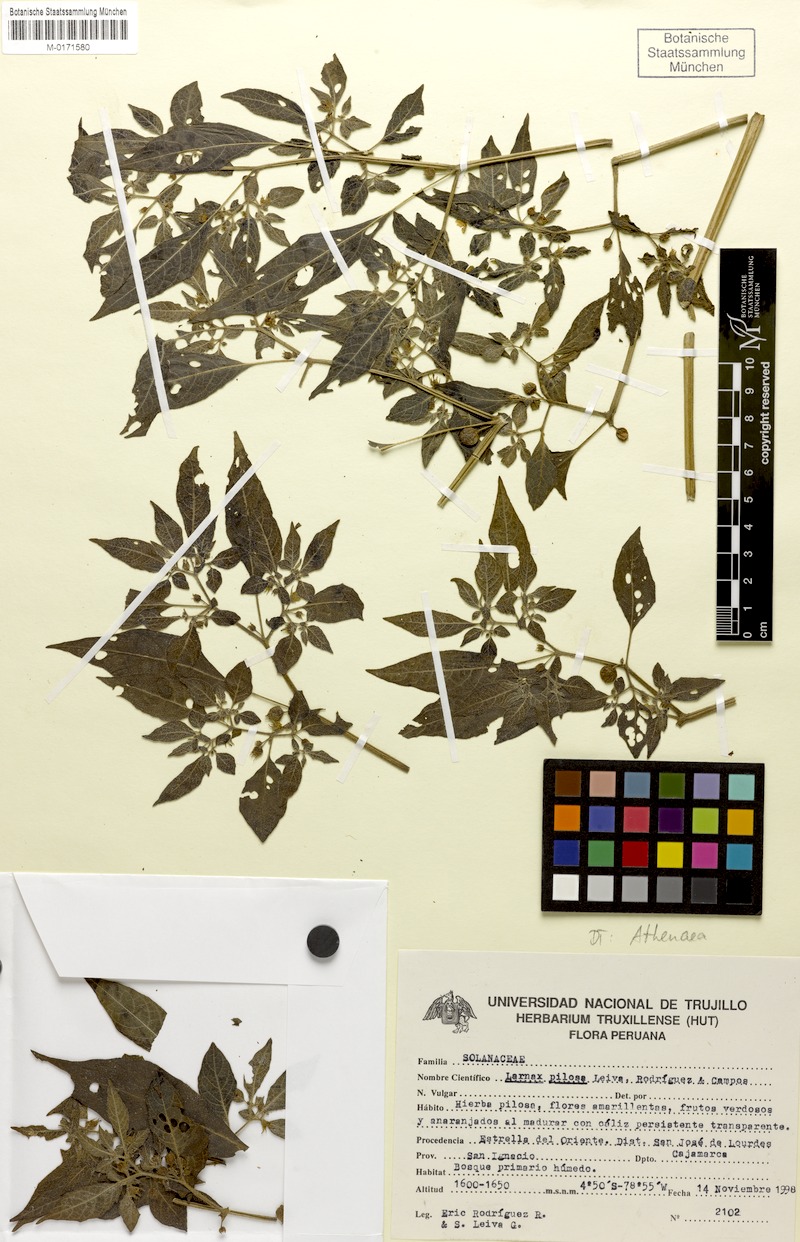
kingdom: Plantae
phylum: Tracheophyta
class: Magnoliopsida
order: Solanales
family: Solanaceae
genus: Deprea
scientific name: Deprea sachapapa
